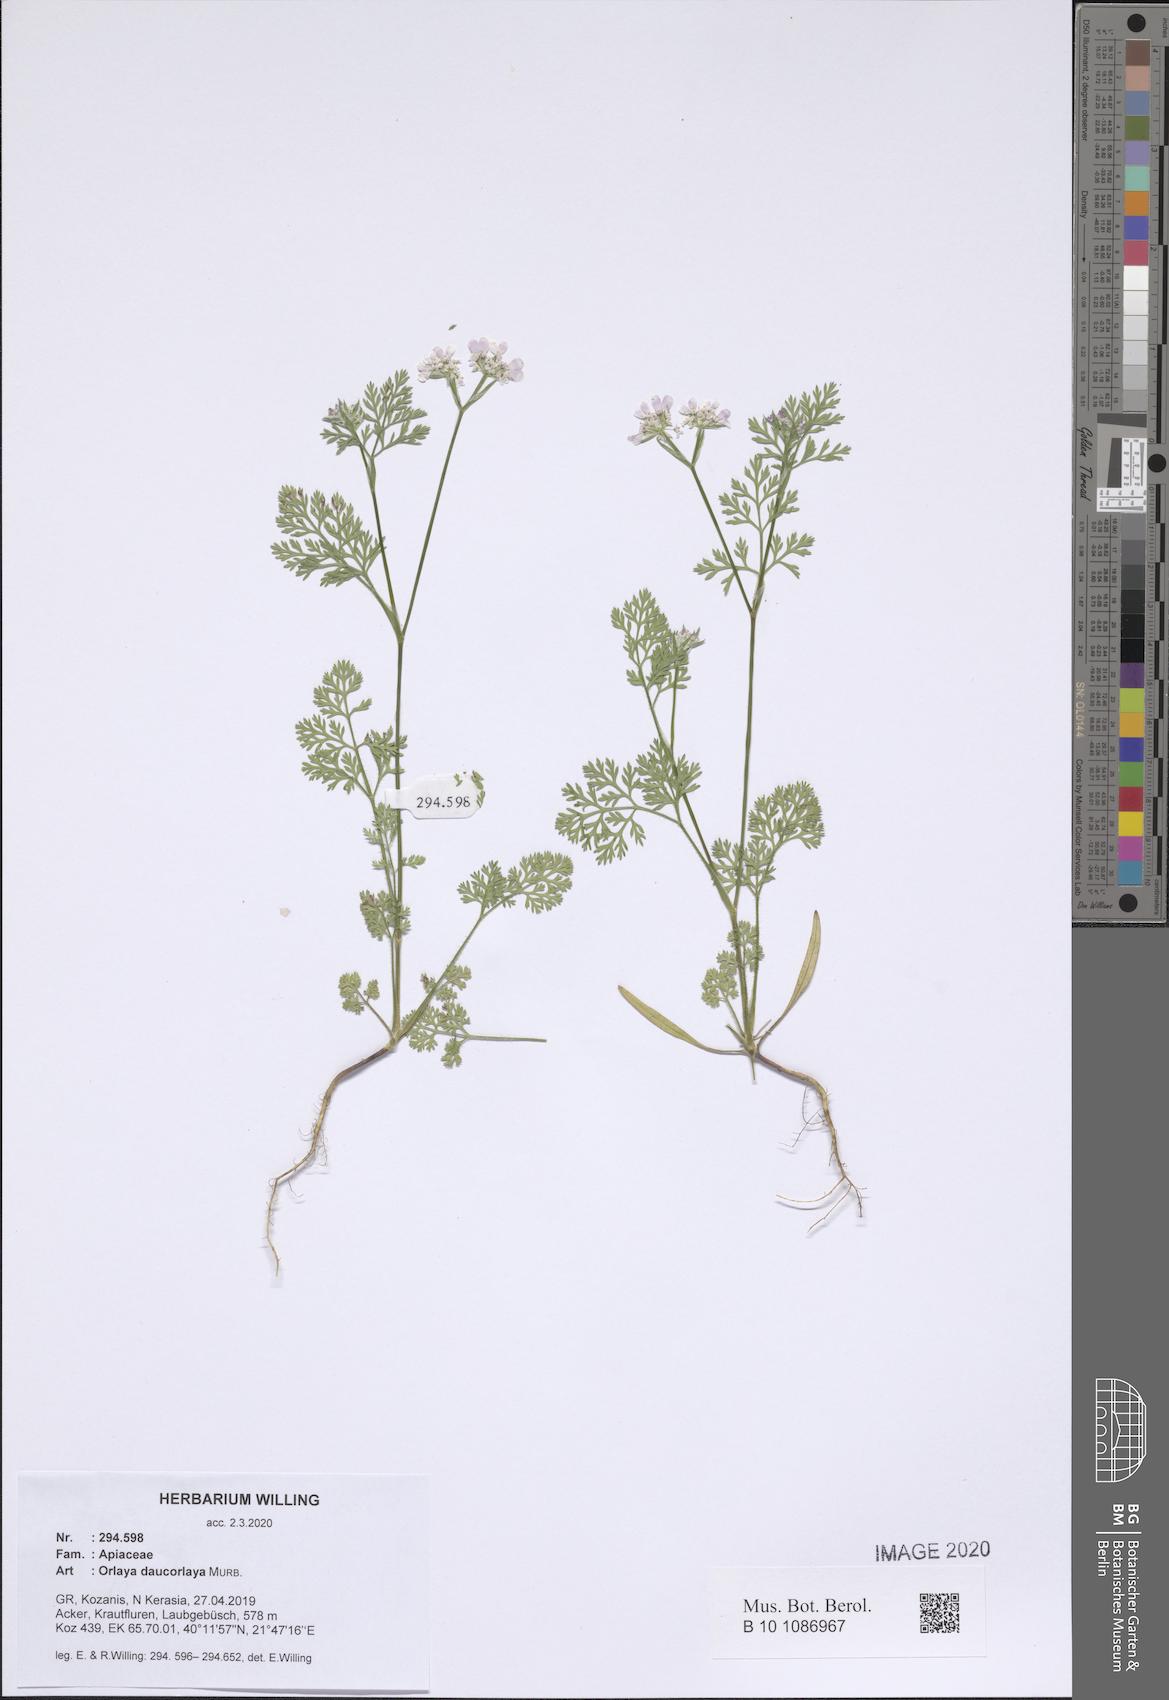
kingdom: Plantae
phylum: Tracheophyta
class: Magnoliopsida
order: Apiales
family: Apiaceae
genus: Orlaya
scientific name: Orlaya daucorlaya
